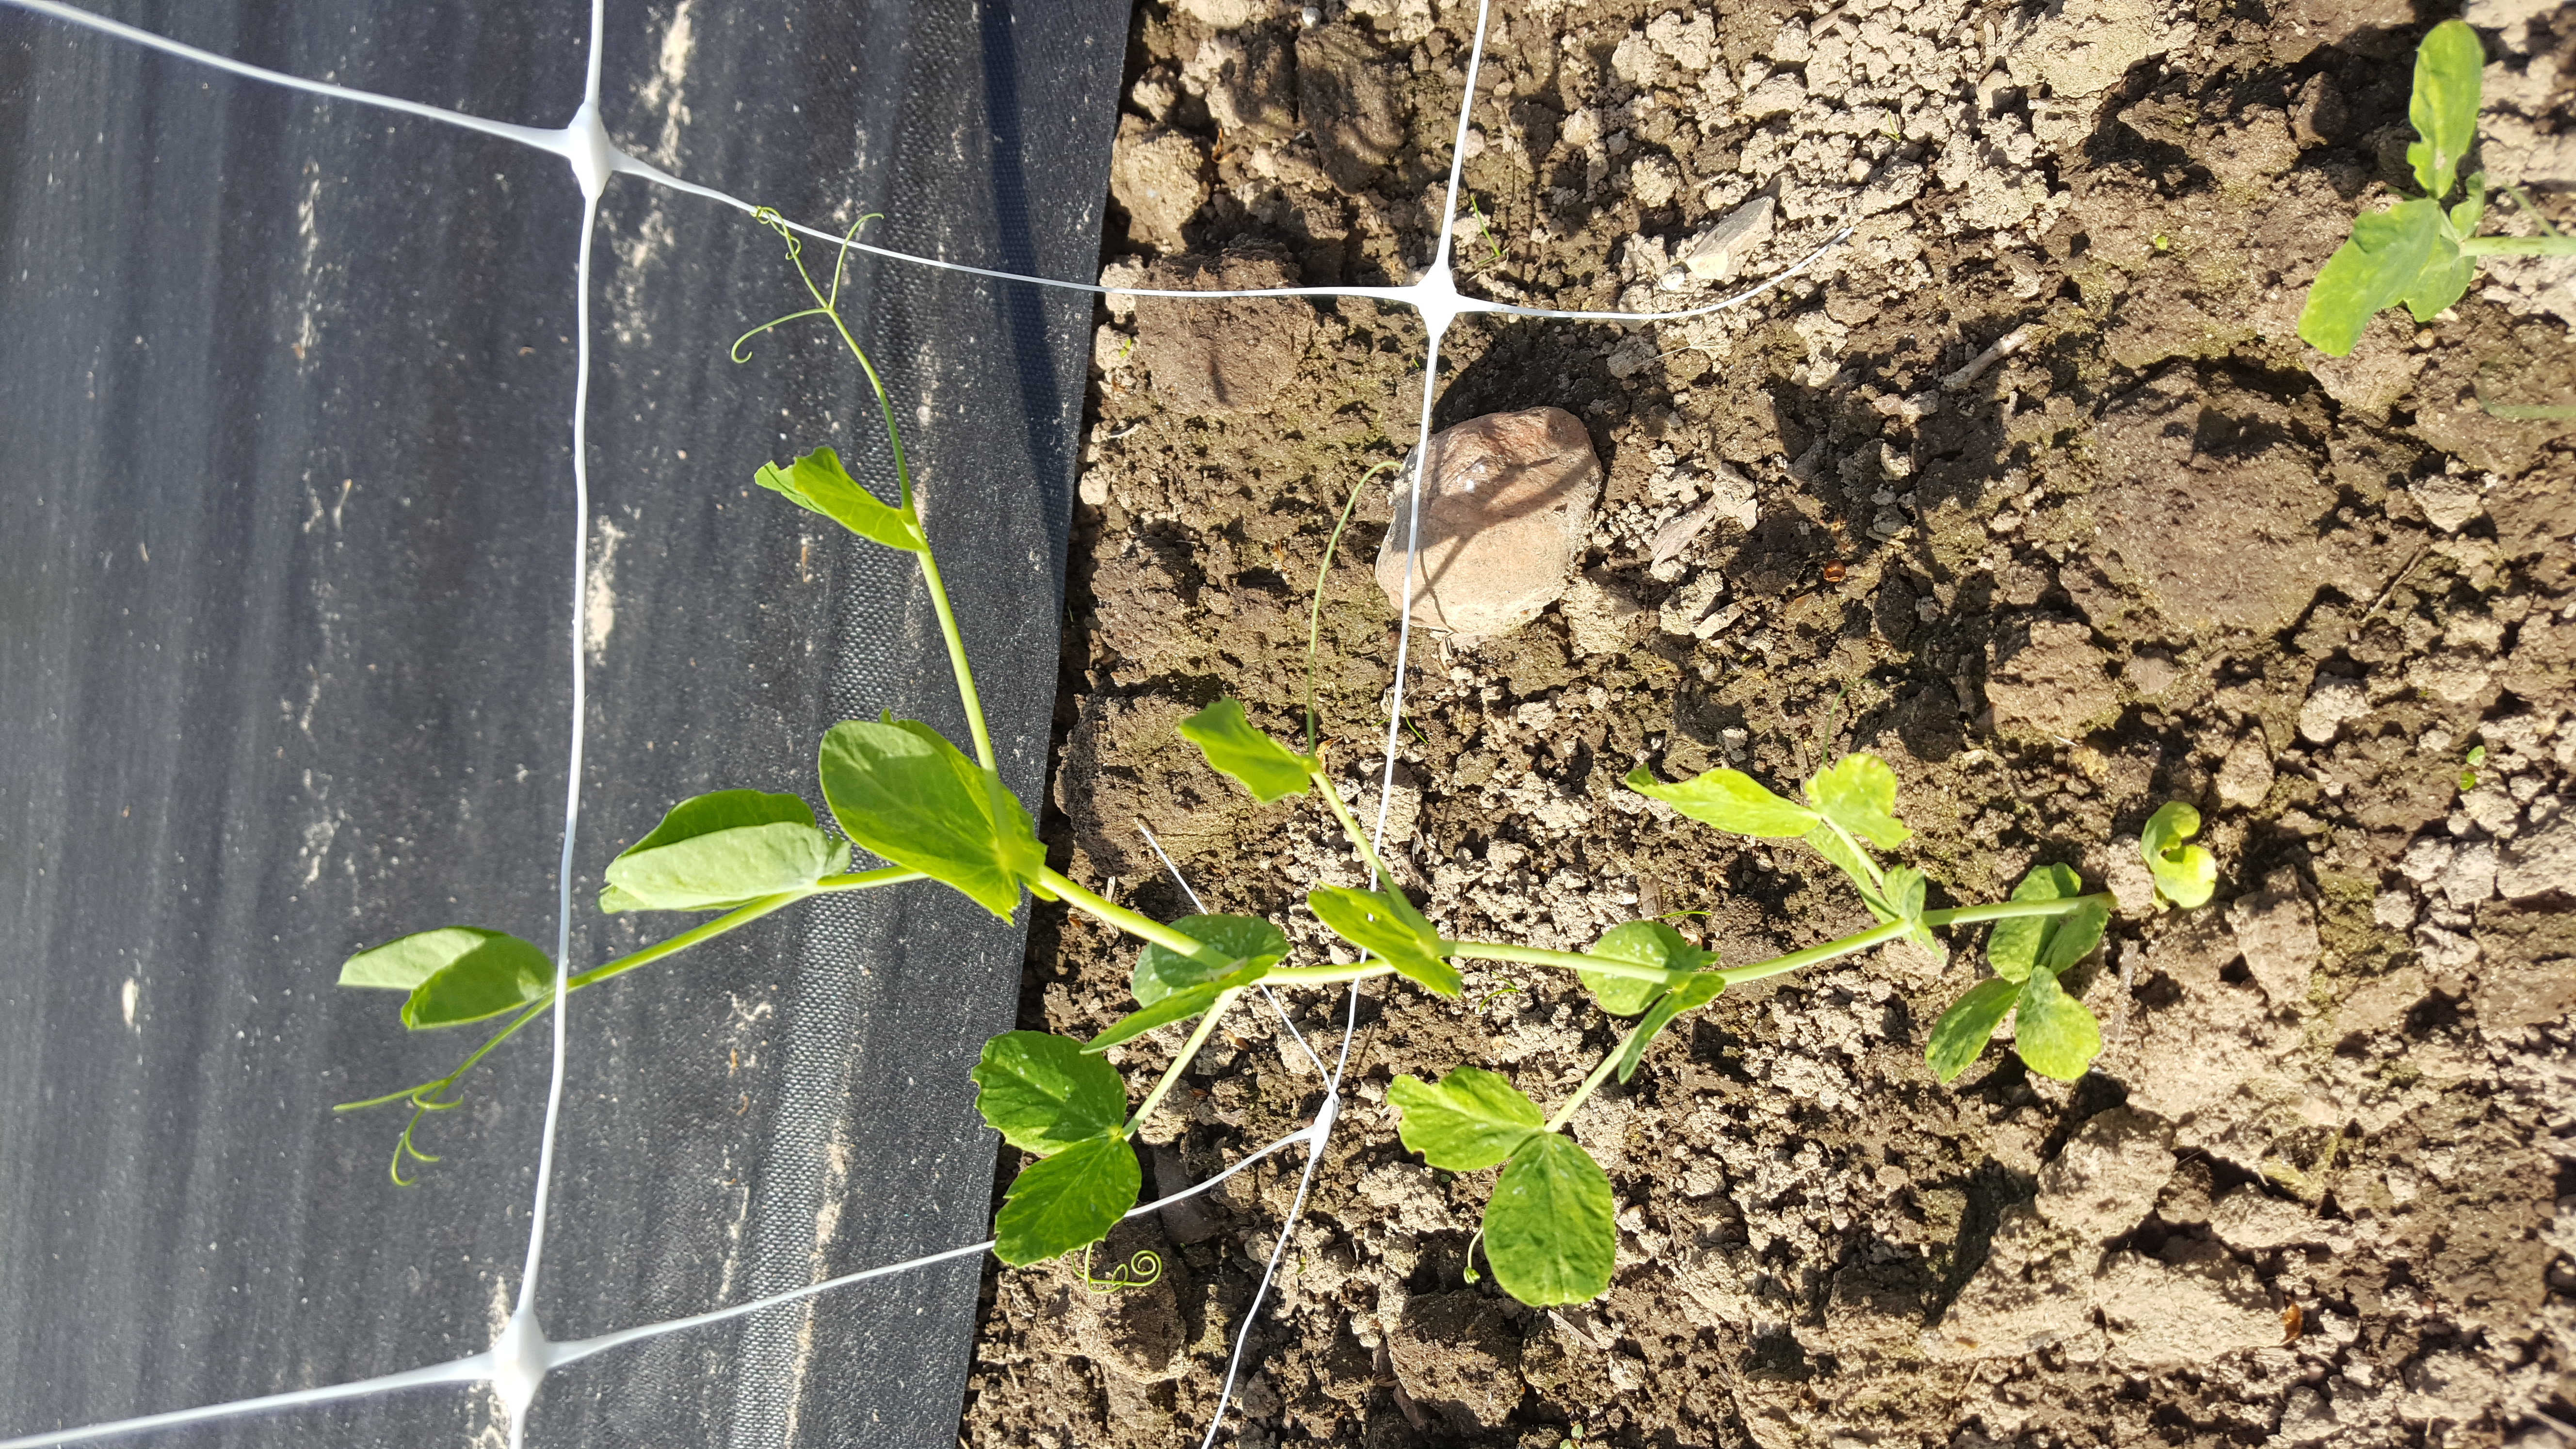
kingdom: Plantae
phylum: Tracheophyta
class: Magnoliopsida
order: Fabales
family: Fabaceae
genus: Lathyrus
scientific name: Lathyrus oleraceus
